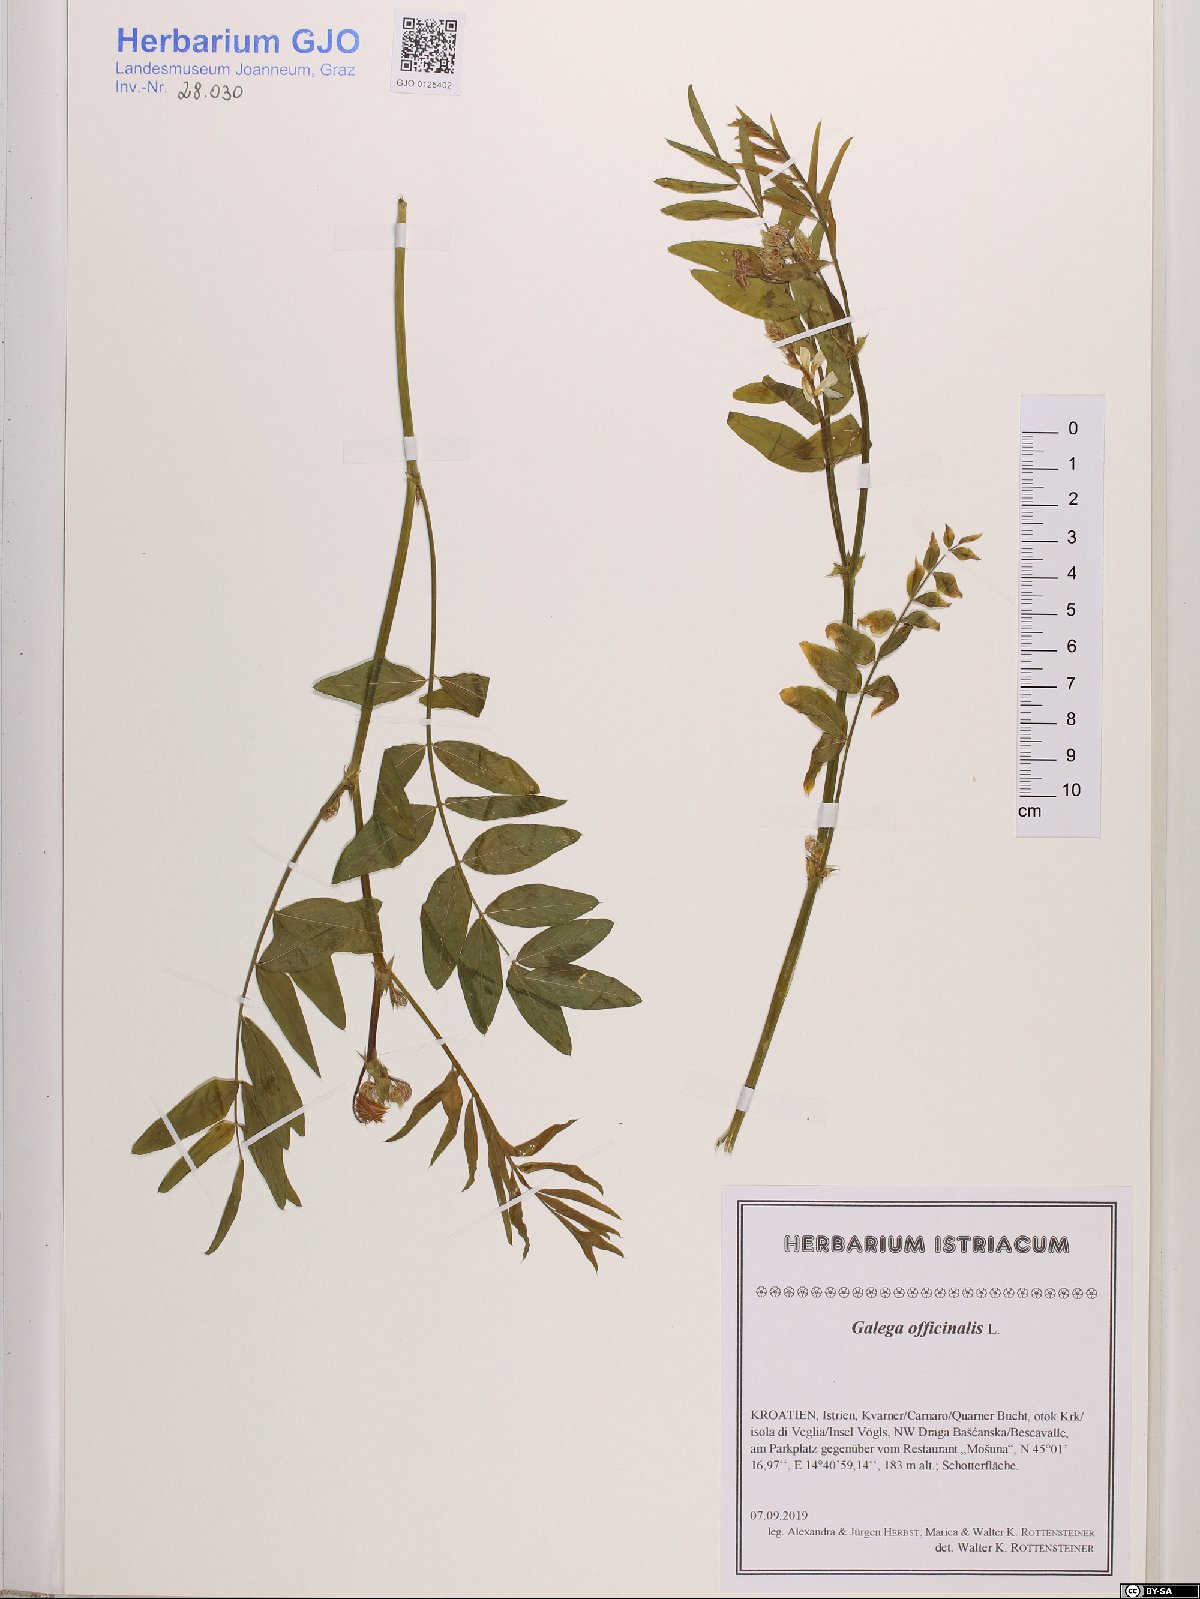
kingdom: Plantae
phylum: Tracheophyta
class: Magnoliopsida
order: Fabales
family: Fabaceae
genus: Galega
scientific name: Galega officinalis
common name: Goat's-rue
